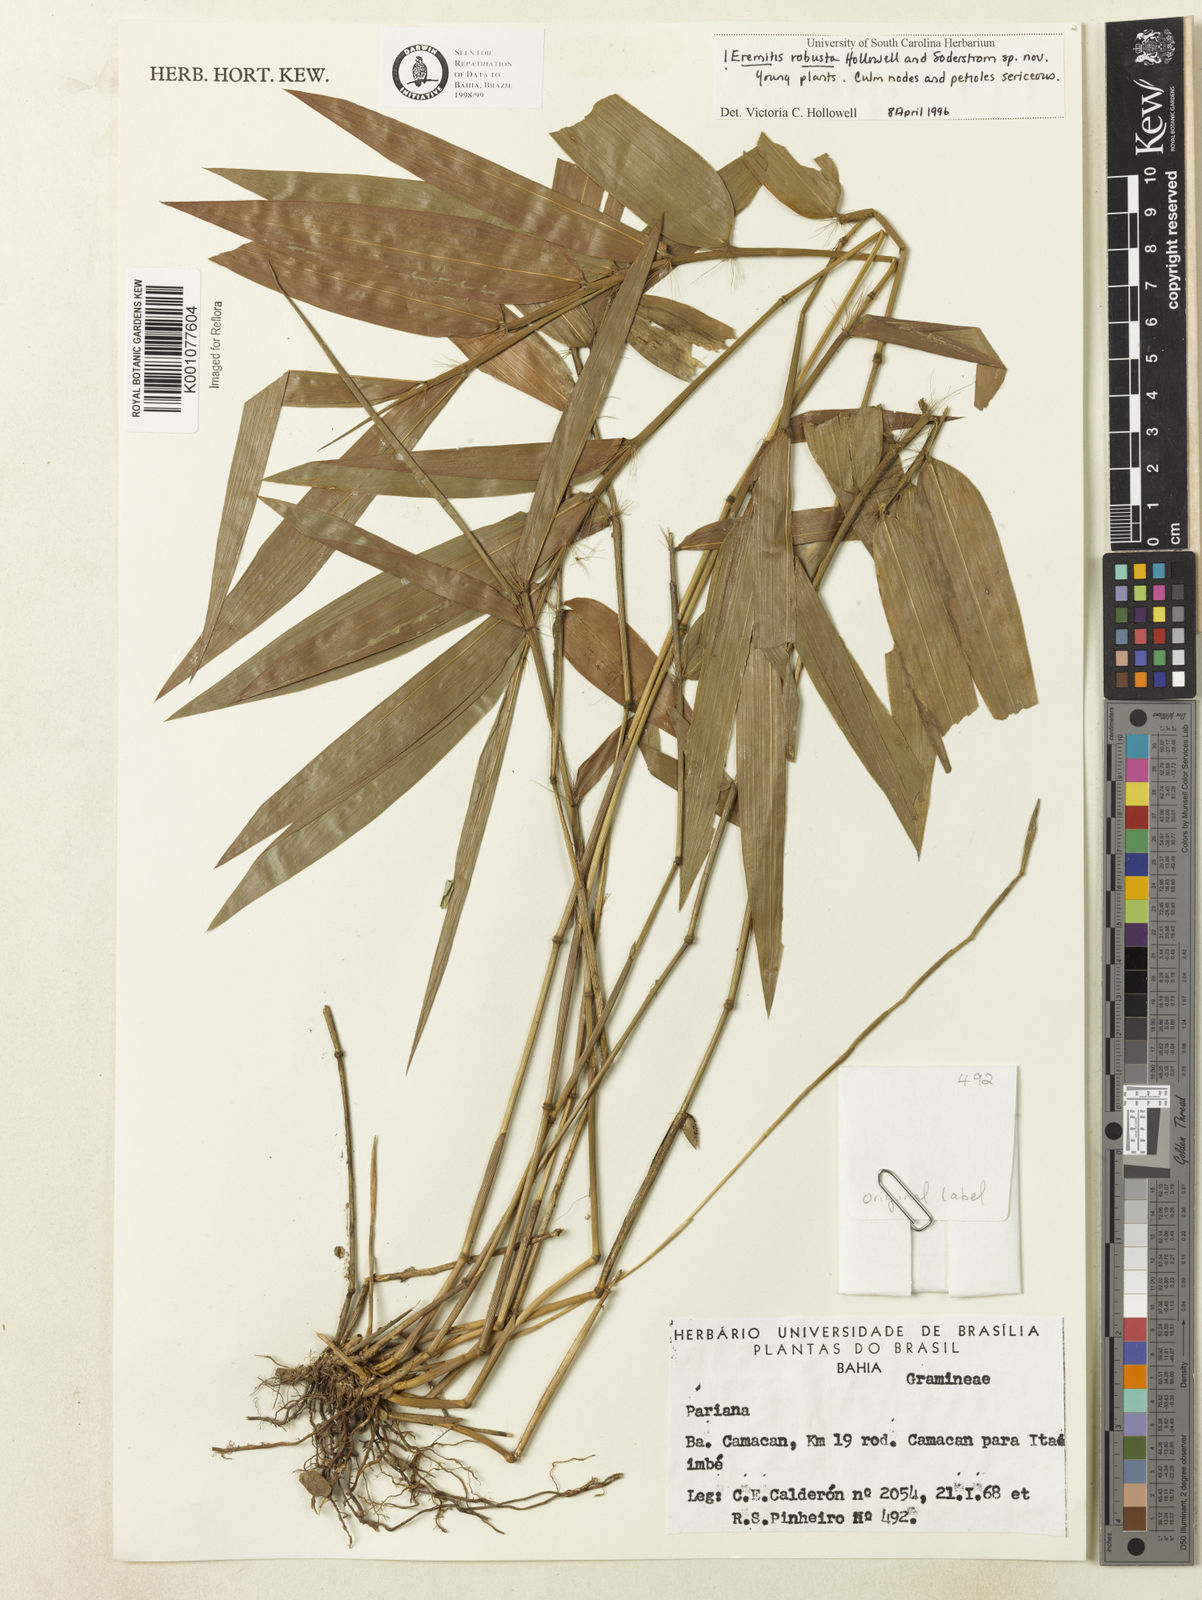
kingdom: Plantae
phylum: Tracheophyta
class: Liliopsida
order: Poales
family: Poaceae
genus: Eremitis
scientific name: Eremitis
